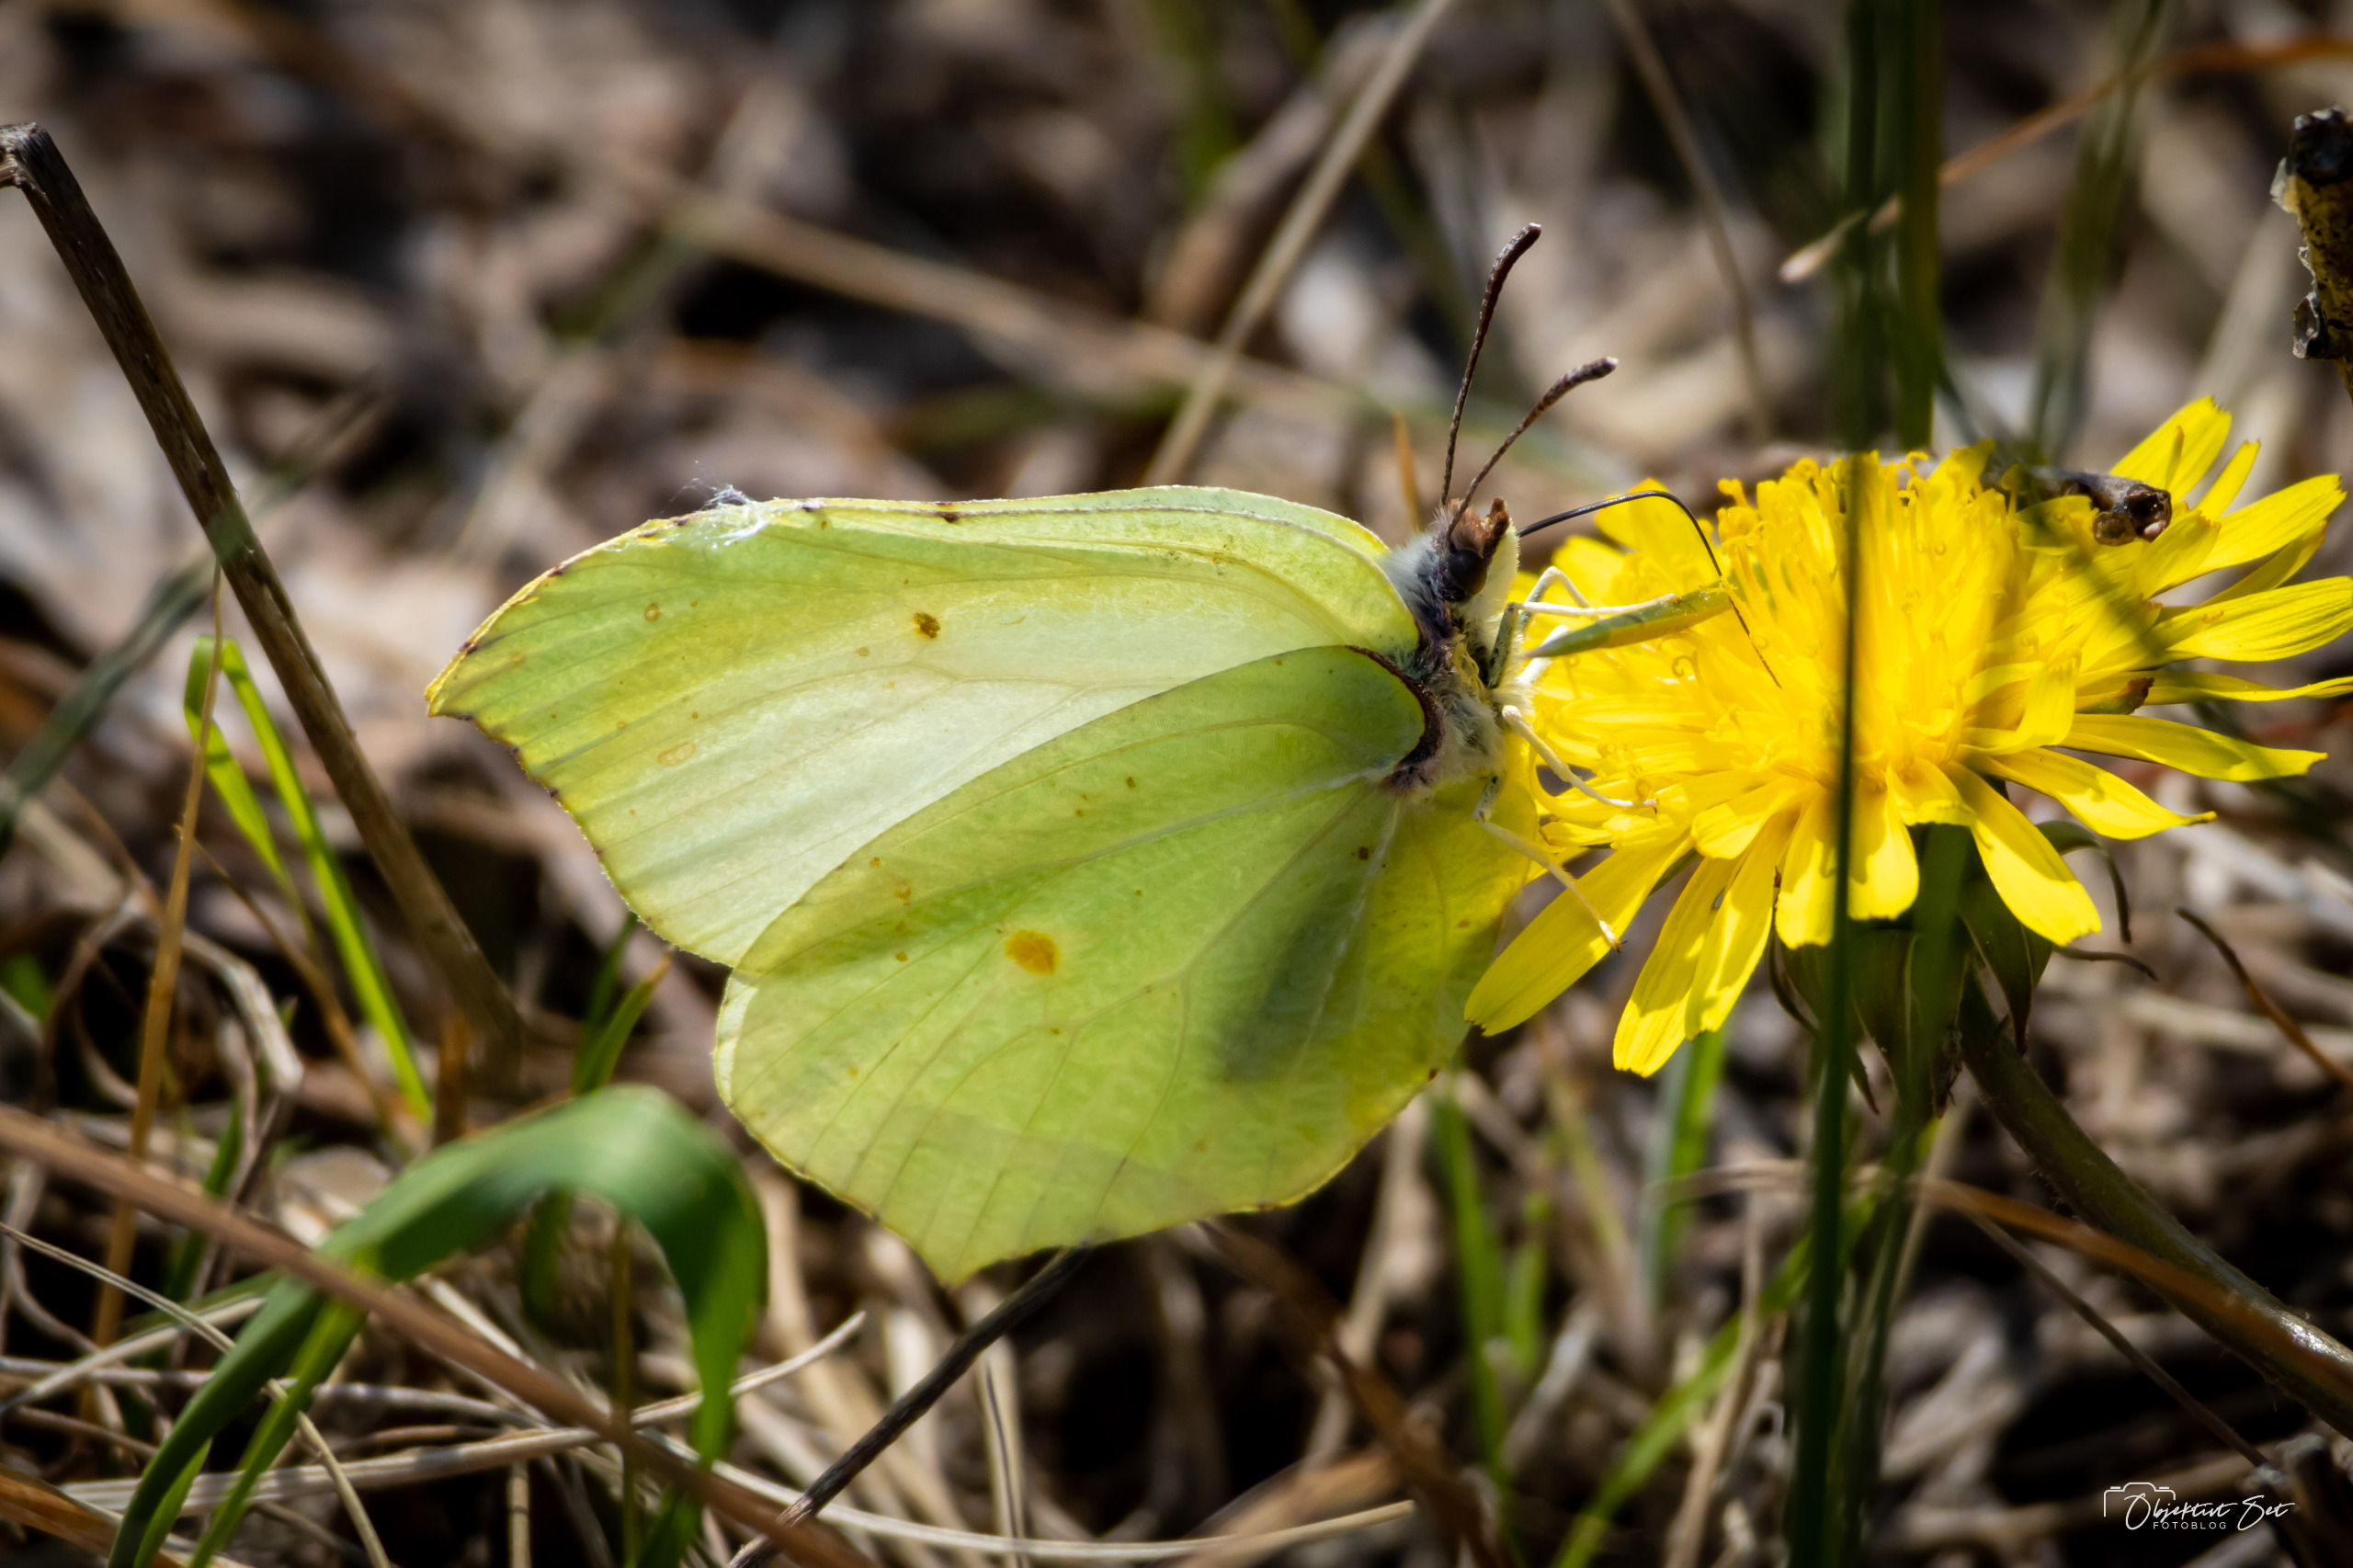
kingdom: Animalia
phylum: Arthropoda
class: Insecta
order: Lepidoptera
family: Pieridae
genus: Gonepteryx
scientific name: Gonepteryx rhamni
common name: Citronsommerfugl
